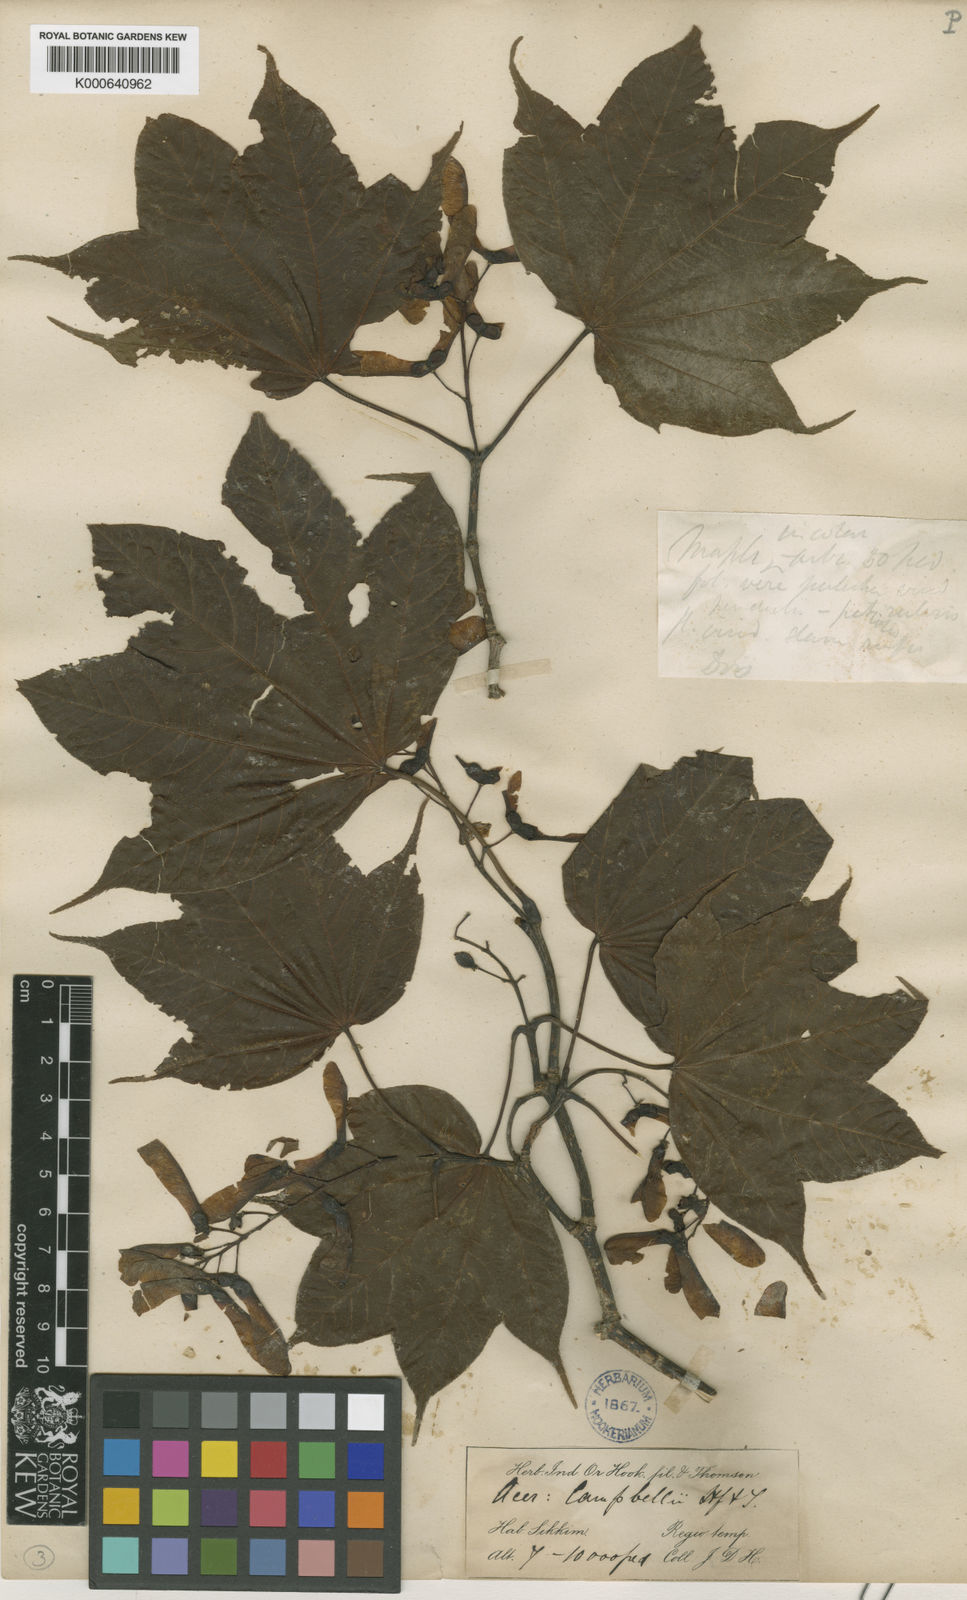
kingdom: Plantae
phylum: Tracheophyta
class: Magnoliopsida
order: Sapindales
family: Sapindaceae
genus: Acer
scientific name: Acer
